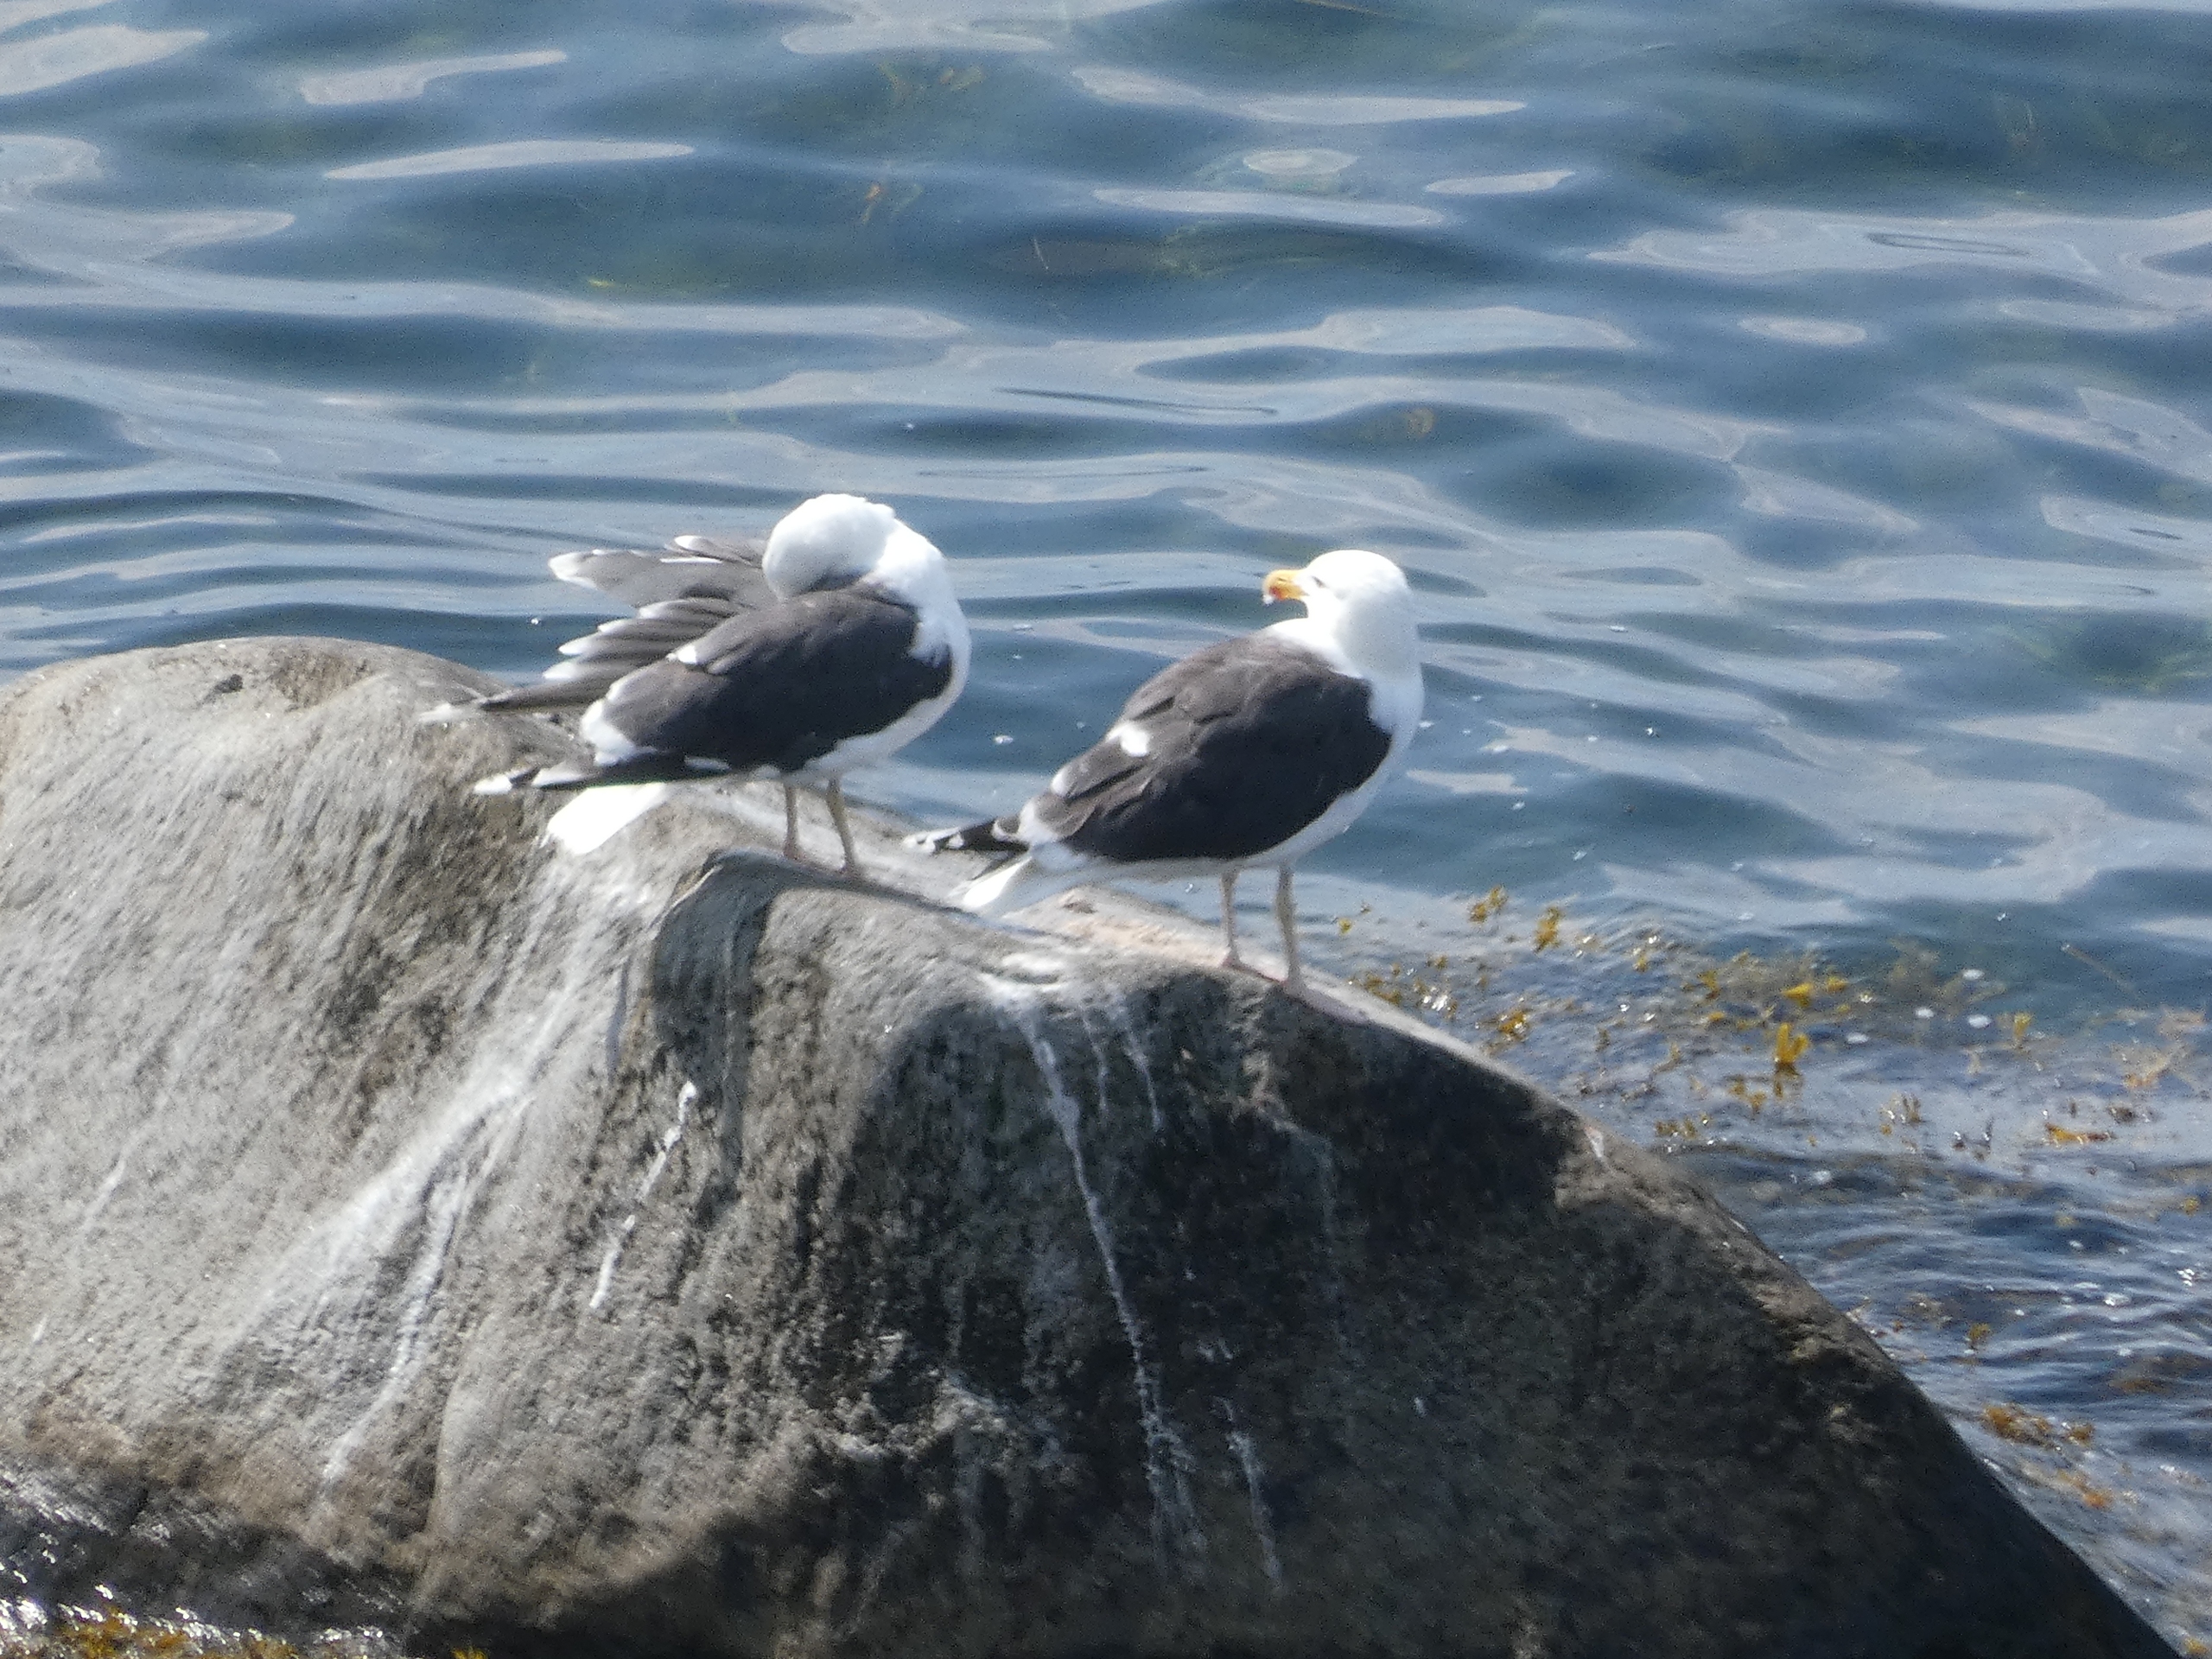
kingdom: Animalia
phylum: Chordata
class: Aves
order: Charadriiformes
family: Laridae
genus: Larus
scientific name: Larus marinus
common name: Svartbag
